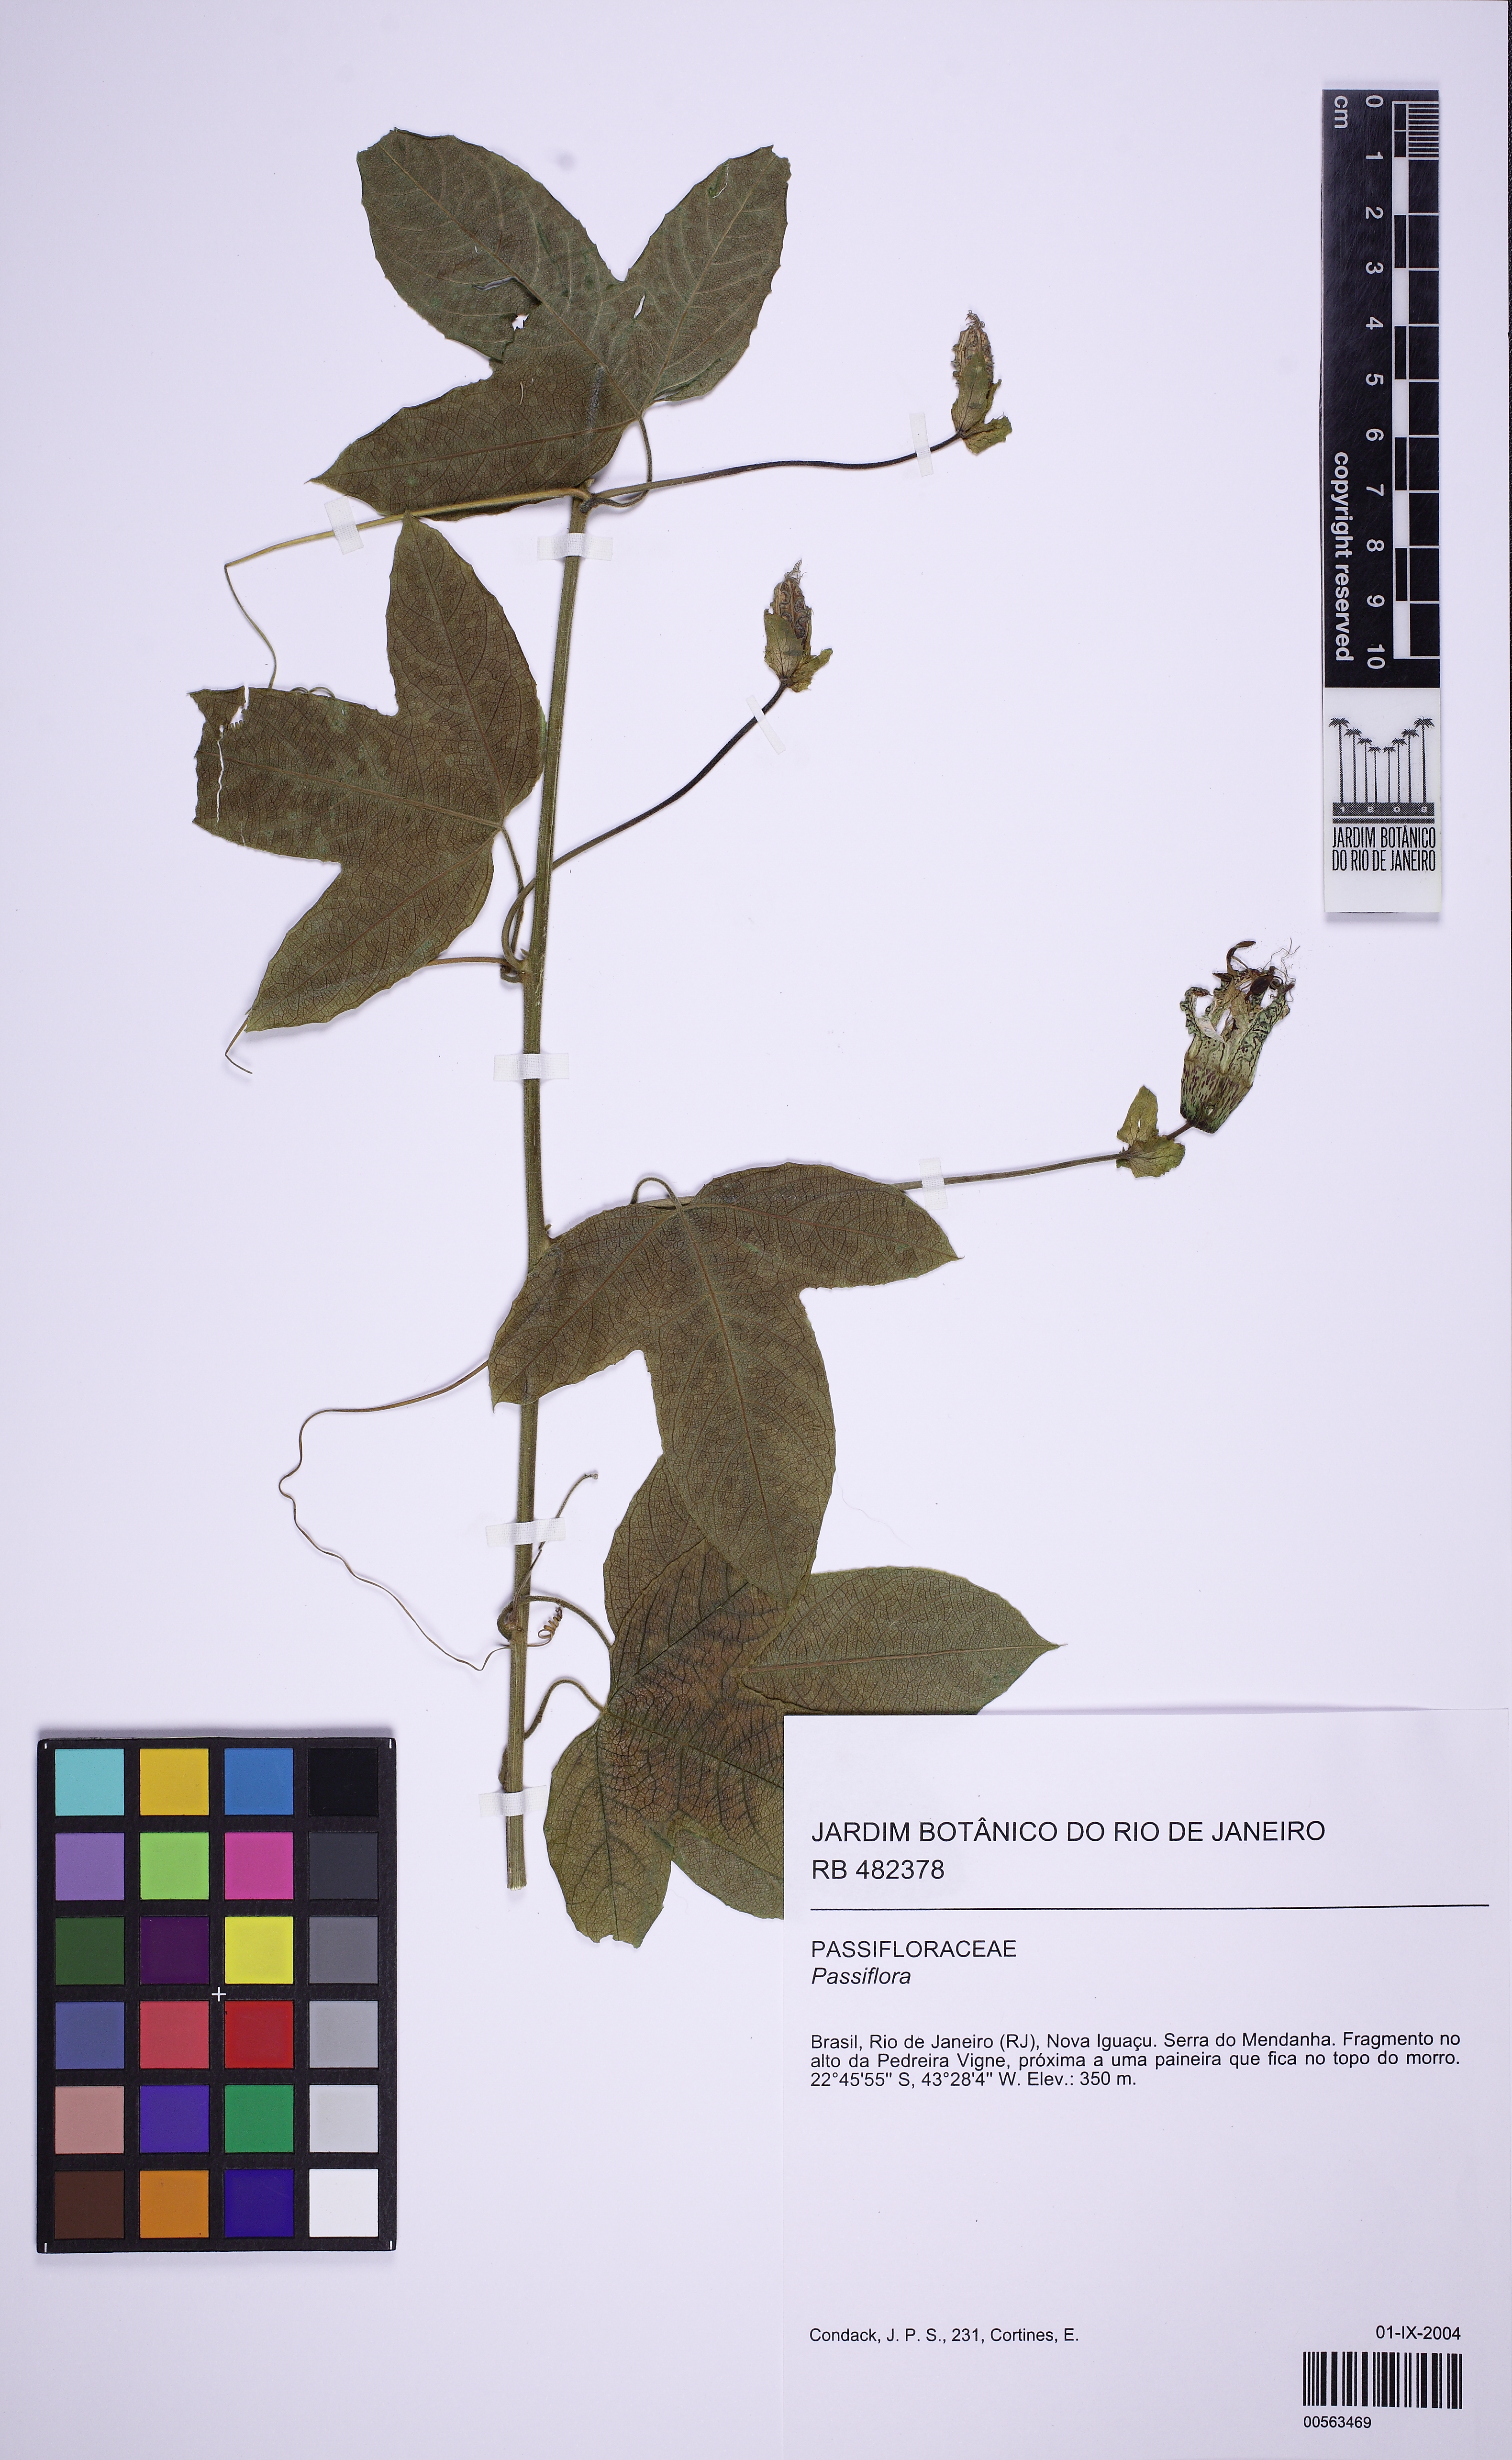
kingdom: Plantae
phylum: Tracheophyta
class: Magnoliopsida
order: Malpighiales
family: Passifloraceae
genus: Passiflora
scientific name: Passiflora setacea
